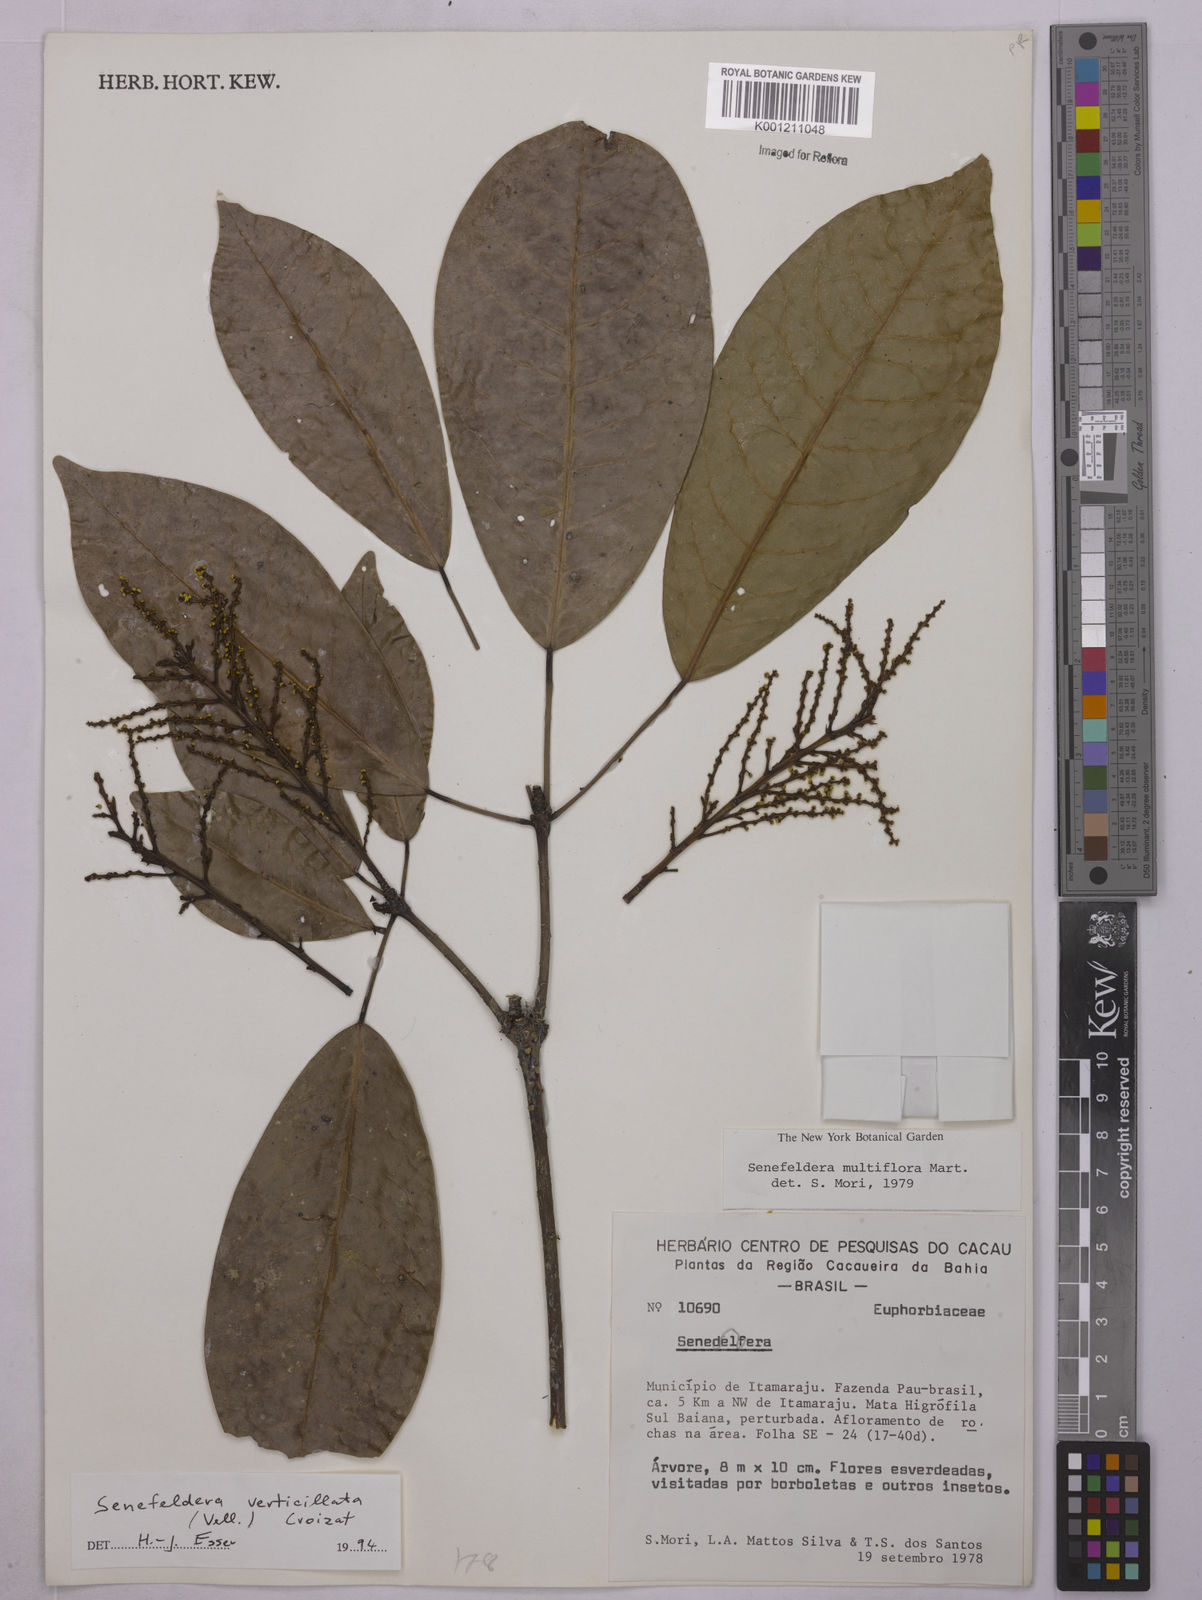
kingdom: Plantae
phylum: Tracheophyta
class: Magnoliopsida
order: Malpighiales
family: Euphorbiaceae
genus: Senefeldera
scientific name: Senefeldera verticillata
